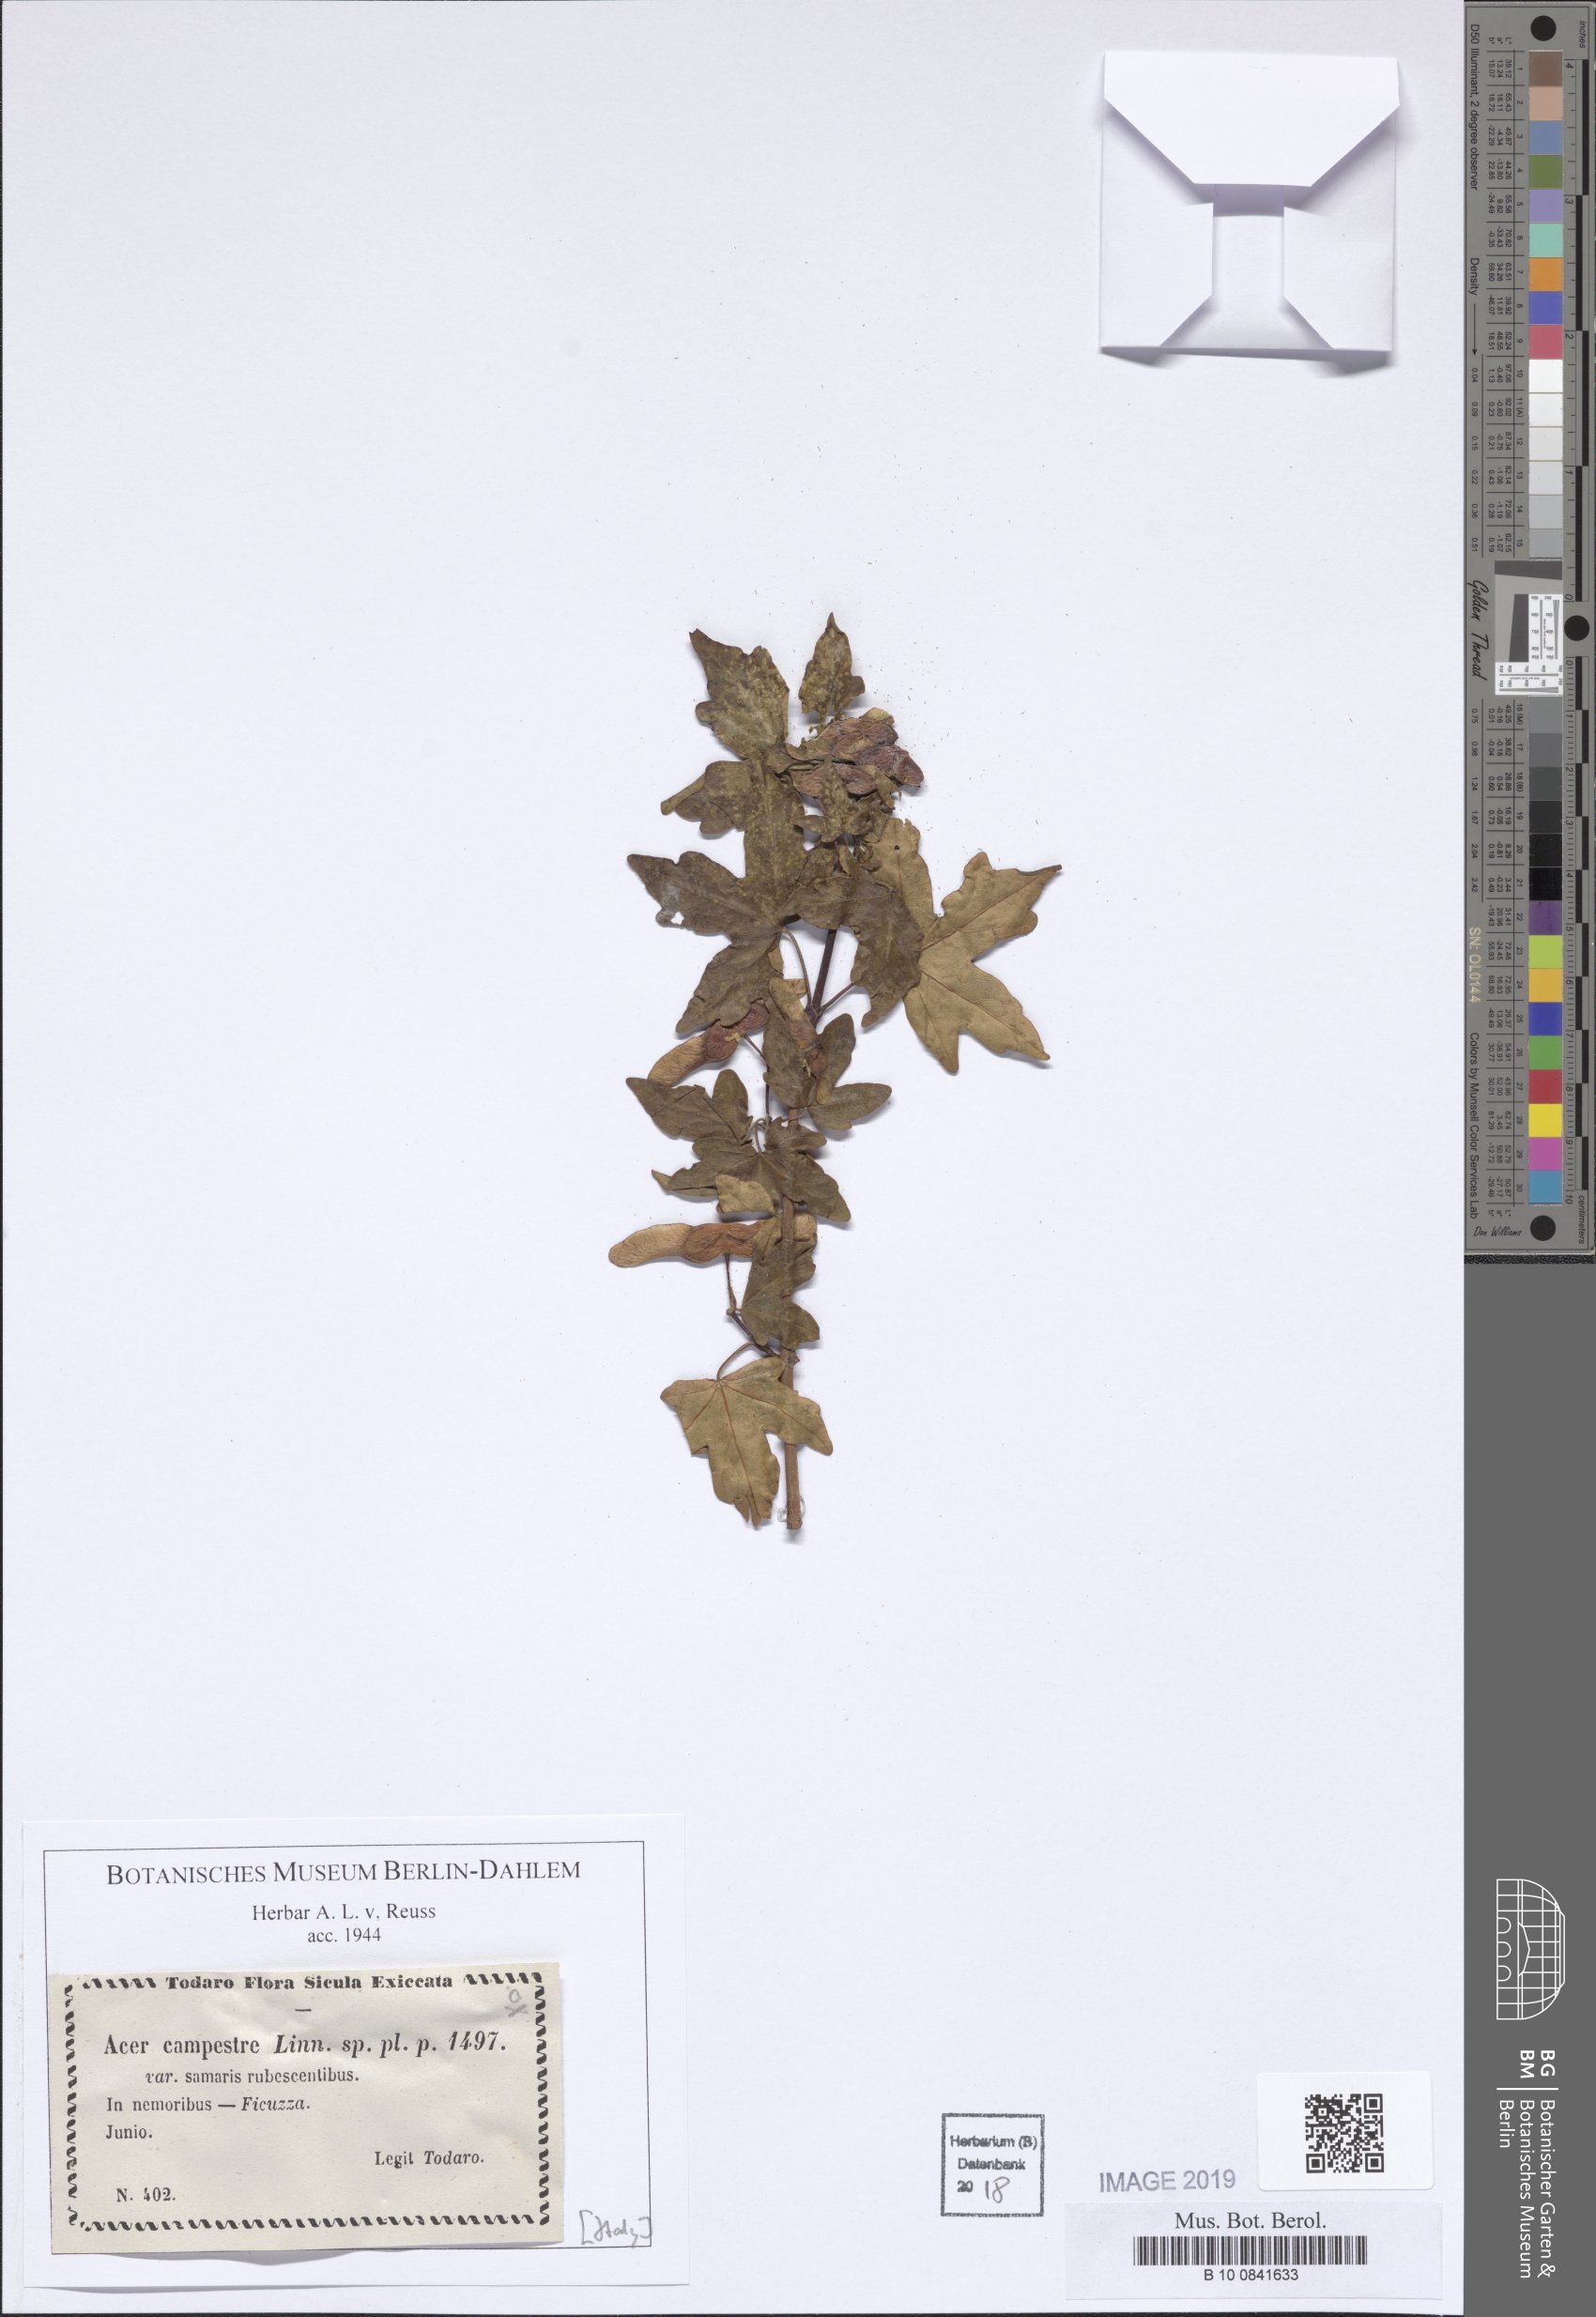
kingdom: Plantae
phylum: Tracheophyta
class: Magnoliopsida
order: Sapindales
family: Sapindaceae
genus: Acer
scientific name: Acer campestre
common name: Field maple
